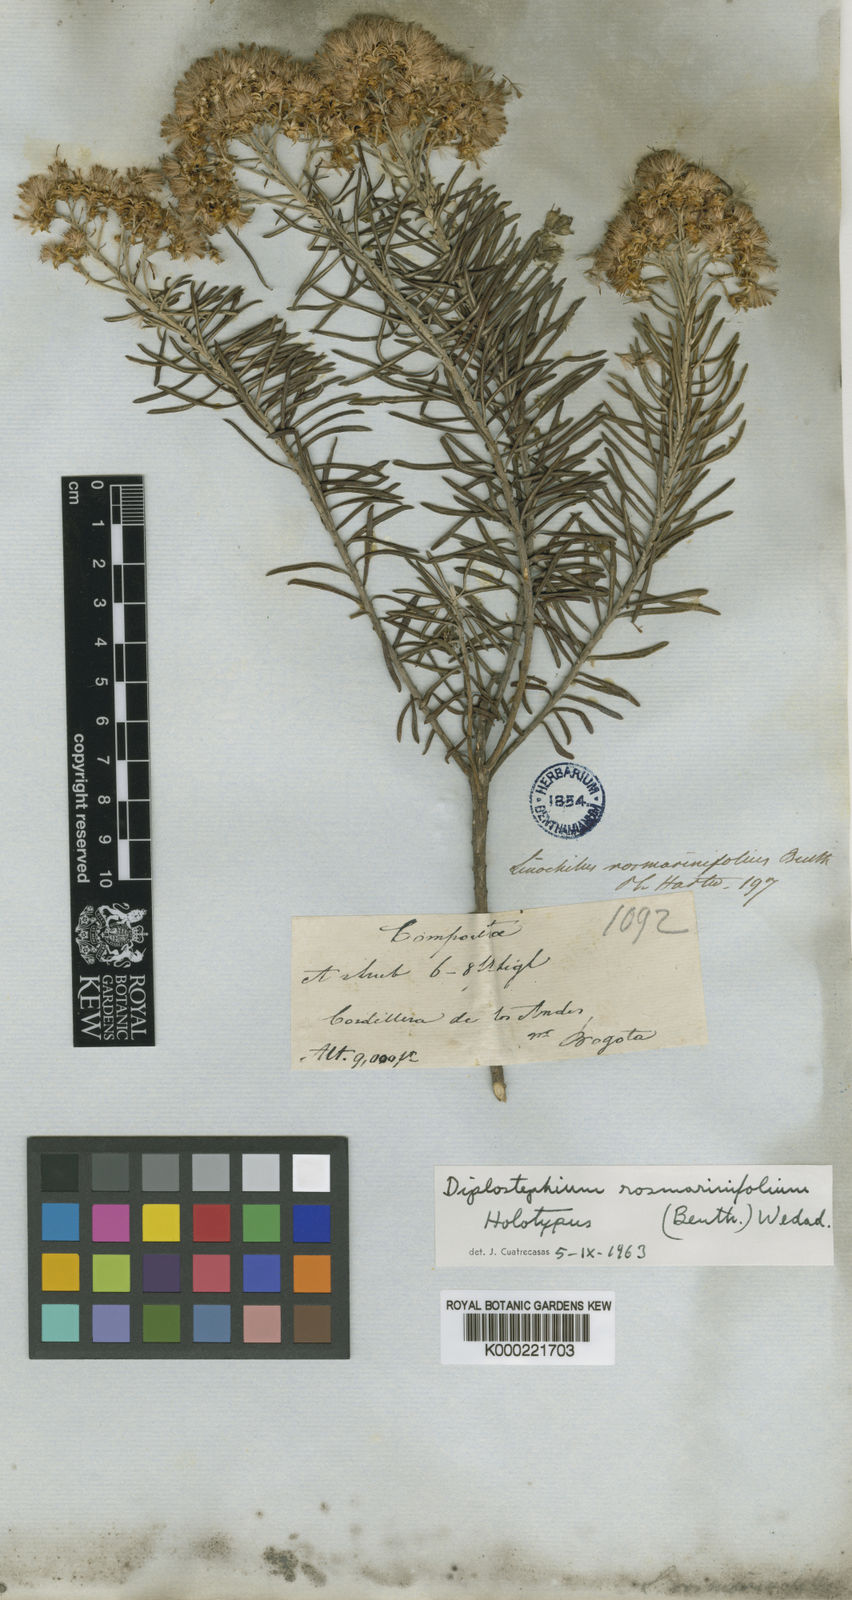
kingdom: Plantae
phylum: Tracheophyta
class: Magnoliopsida
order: Asterales
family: Asteraceae
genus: Linochilus
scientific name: Linochilus rosmarinifolius
